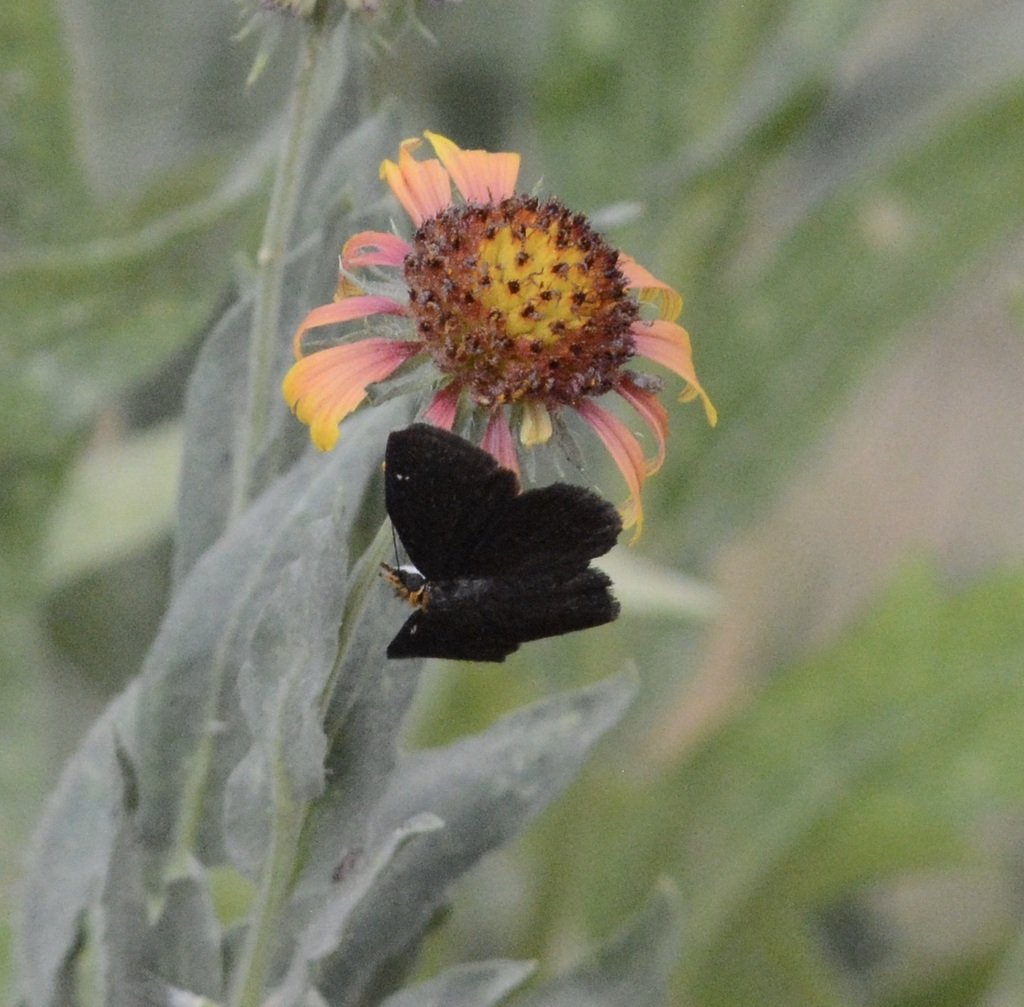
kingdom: Animalia
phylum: Arthropoda
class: Insecta
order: Lepidoptera
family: Hesperiidae
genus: Staphylus
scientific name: Staphylus ceos
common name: Golden-headed Scallopwing
